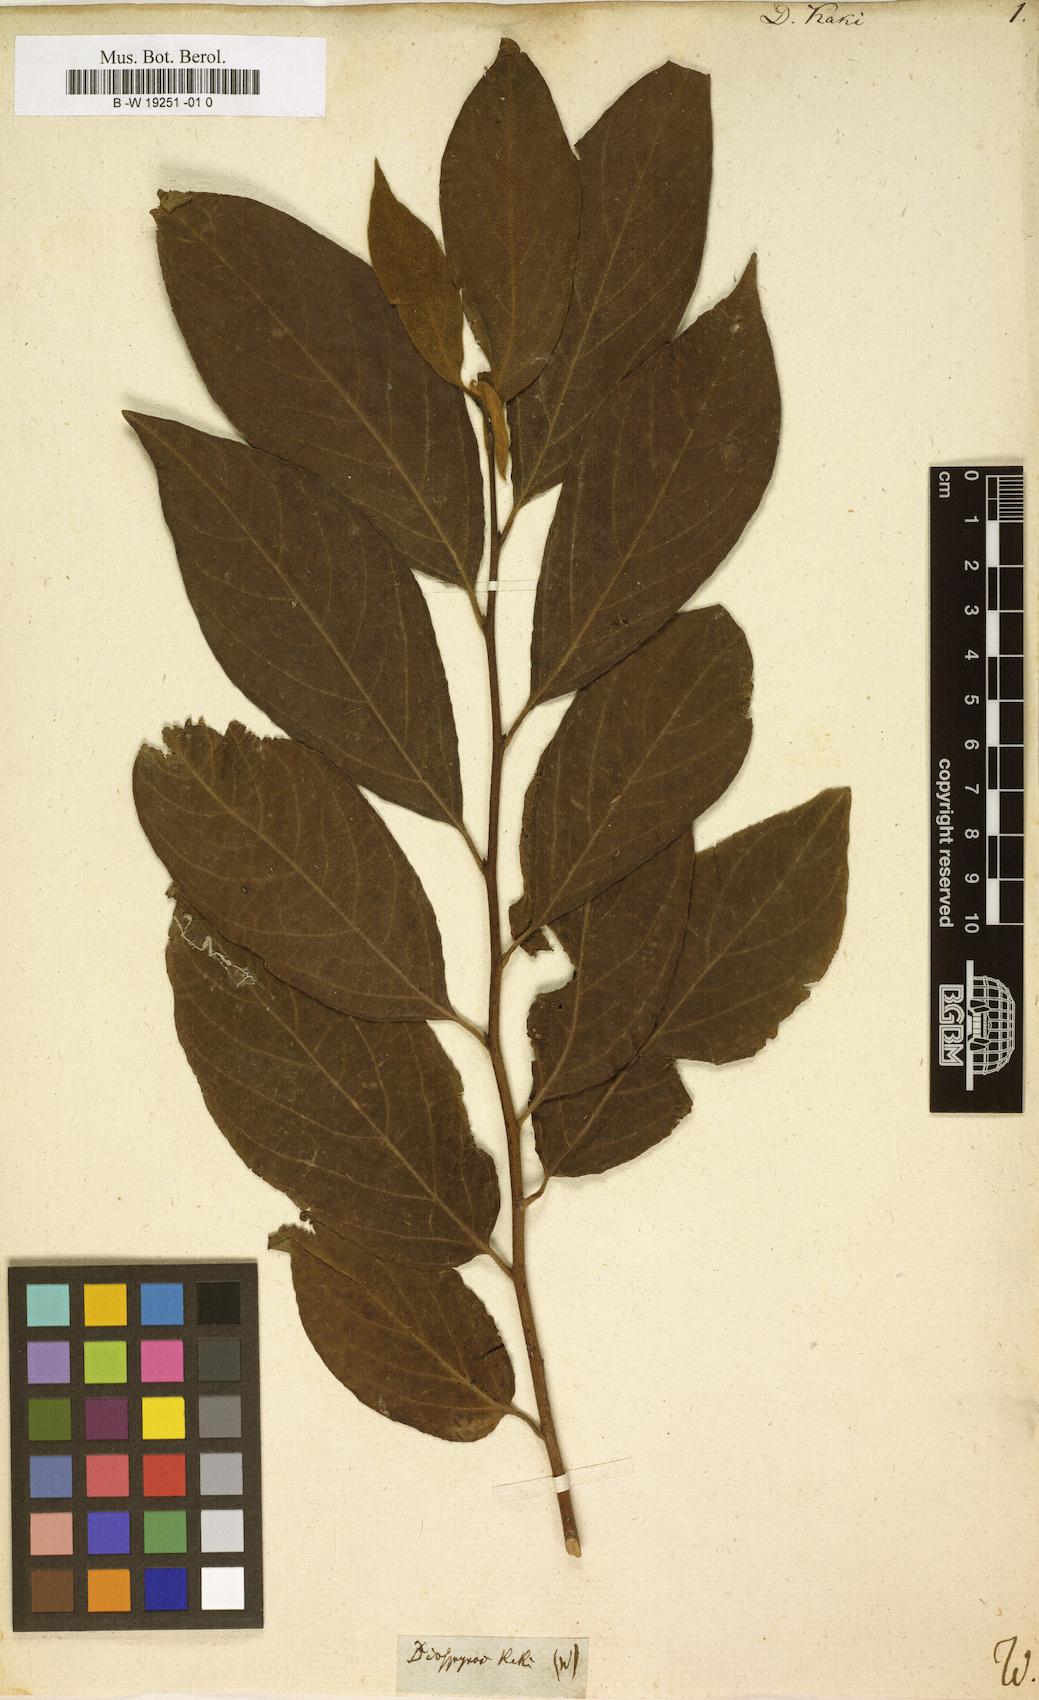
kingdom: Plantae
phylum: Tracheophyta
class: Magnoliopsida
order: Ericales
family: Ebenaceae
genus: Diospyros
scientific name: Diospyros kaki
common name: Persimmon
